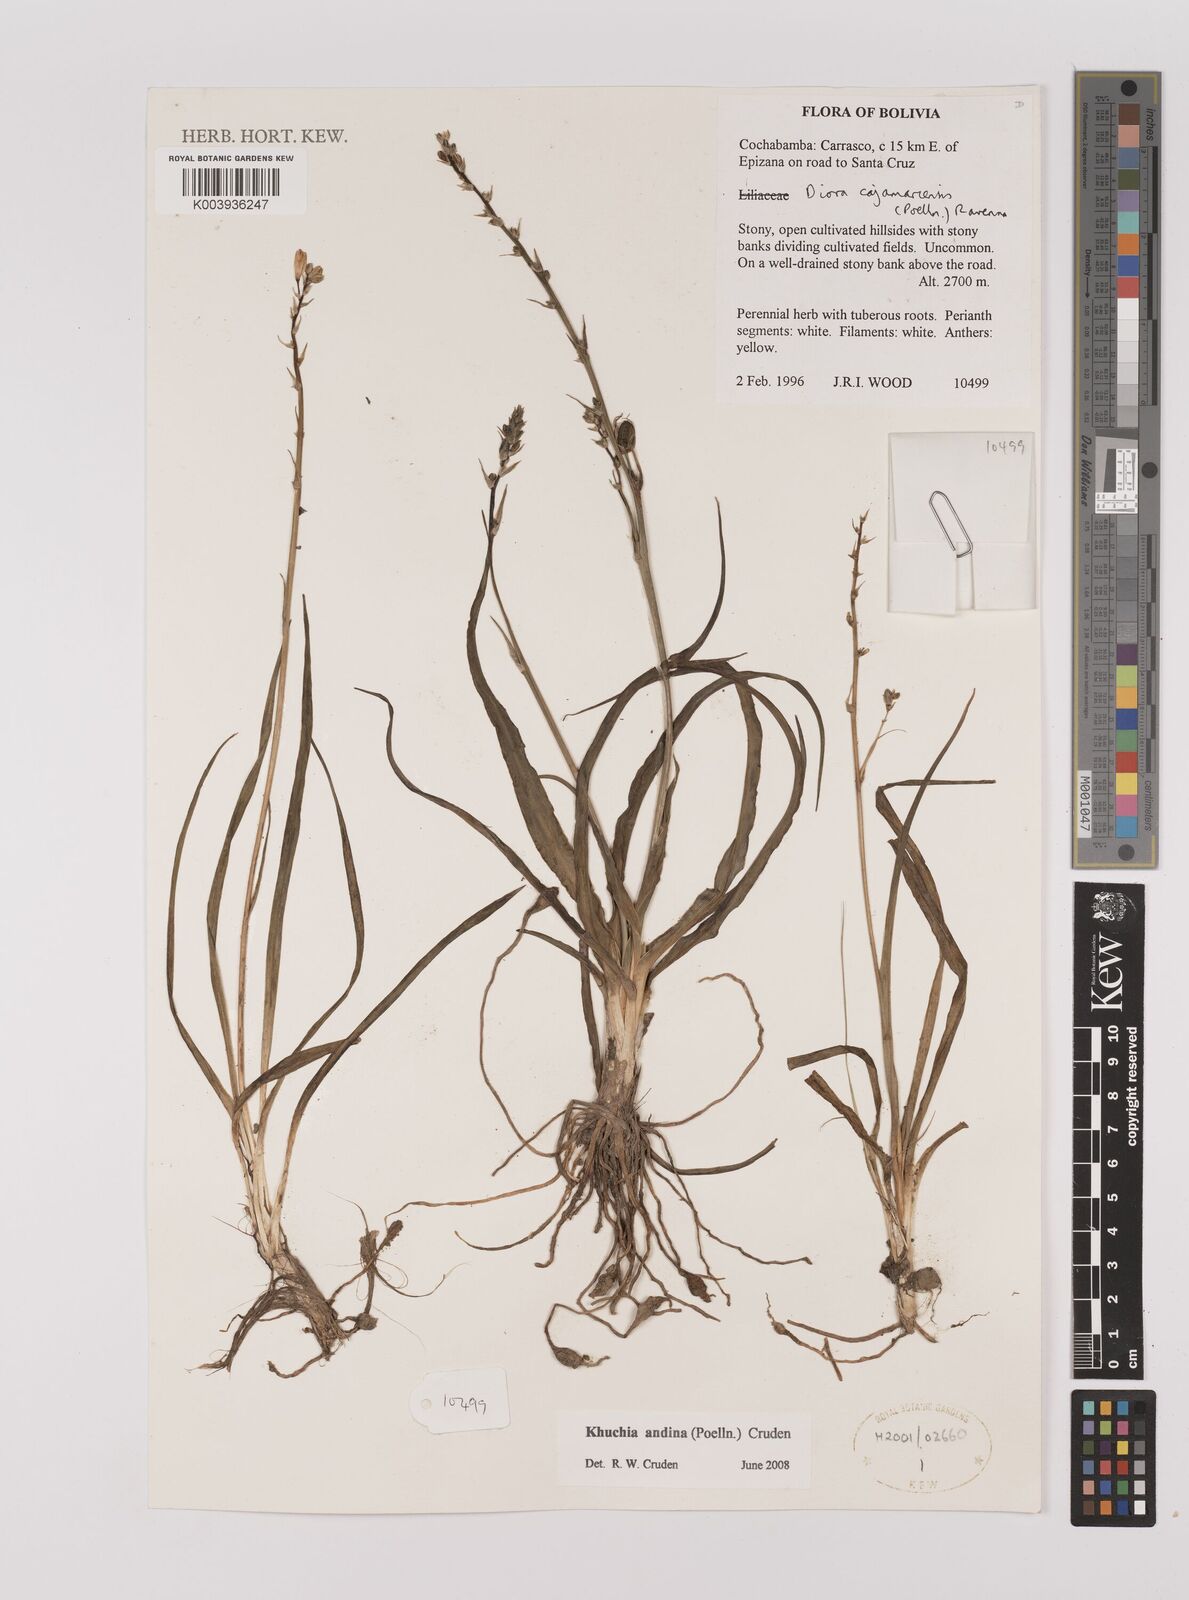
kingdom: Plantae
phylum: Tracheophyta
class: Liliopsida
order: Asparagales
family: Asparagaceae
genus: Echeandia
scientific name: Echeandia
